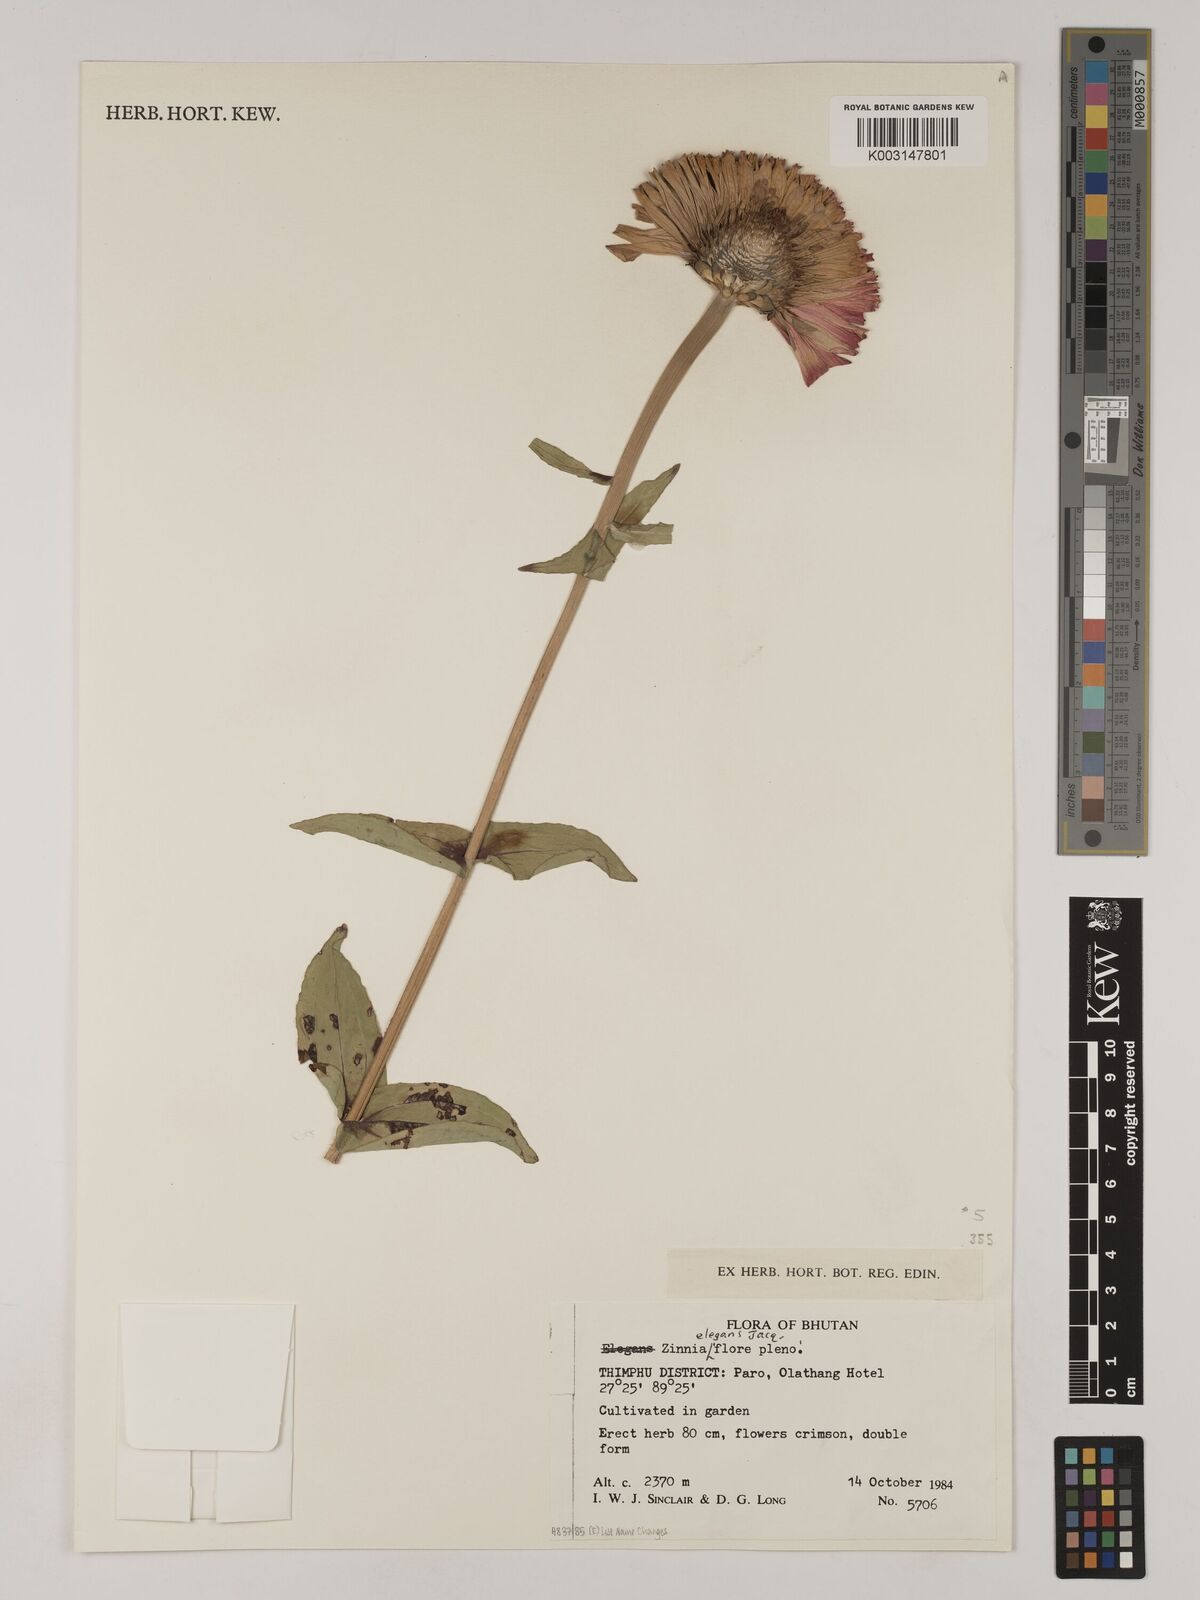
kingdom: Plantae
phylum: Tracheophyta
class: Magnoliopsida
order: Asterales
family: Asteraceae
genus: Zinnia
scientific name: Zinnia elegans
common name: Youth-and-age
